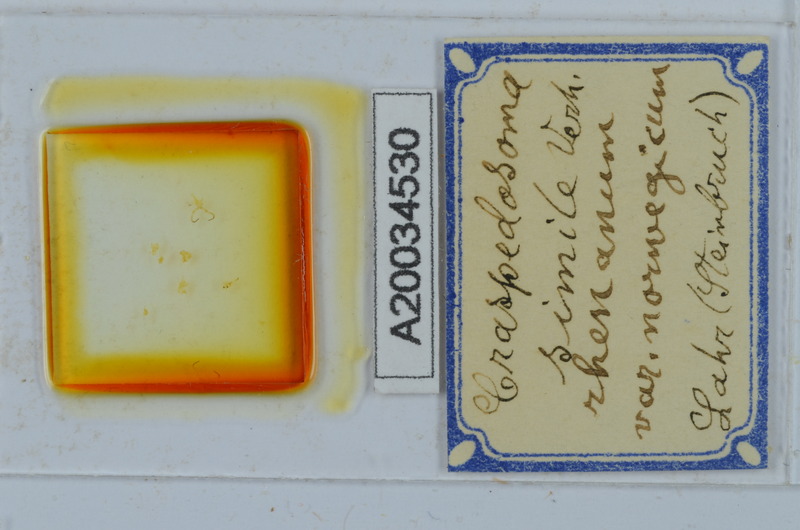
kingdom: Animalia
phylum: Arthropoda
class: Diplopoda
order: Chordeumatida
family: Craspedosomatidae
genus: Craspedosoma
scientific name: Craspedosoma rawlinsii
